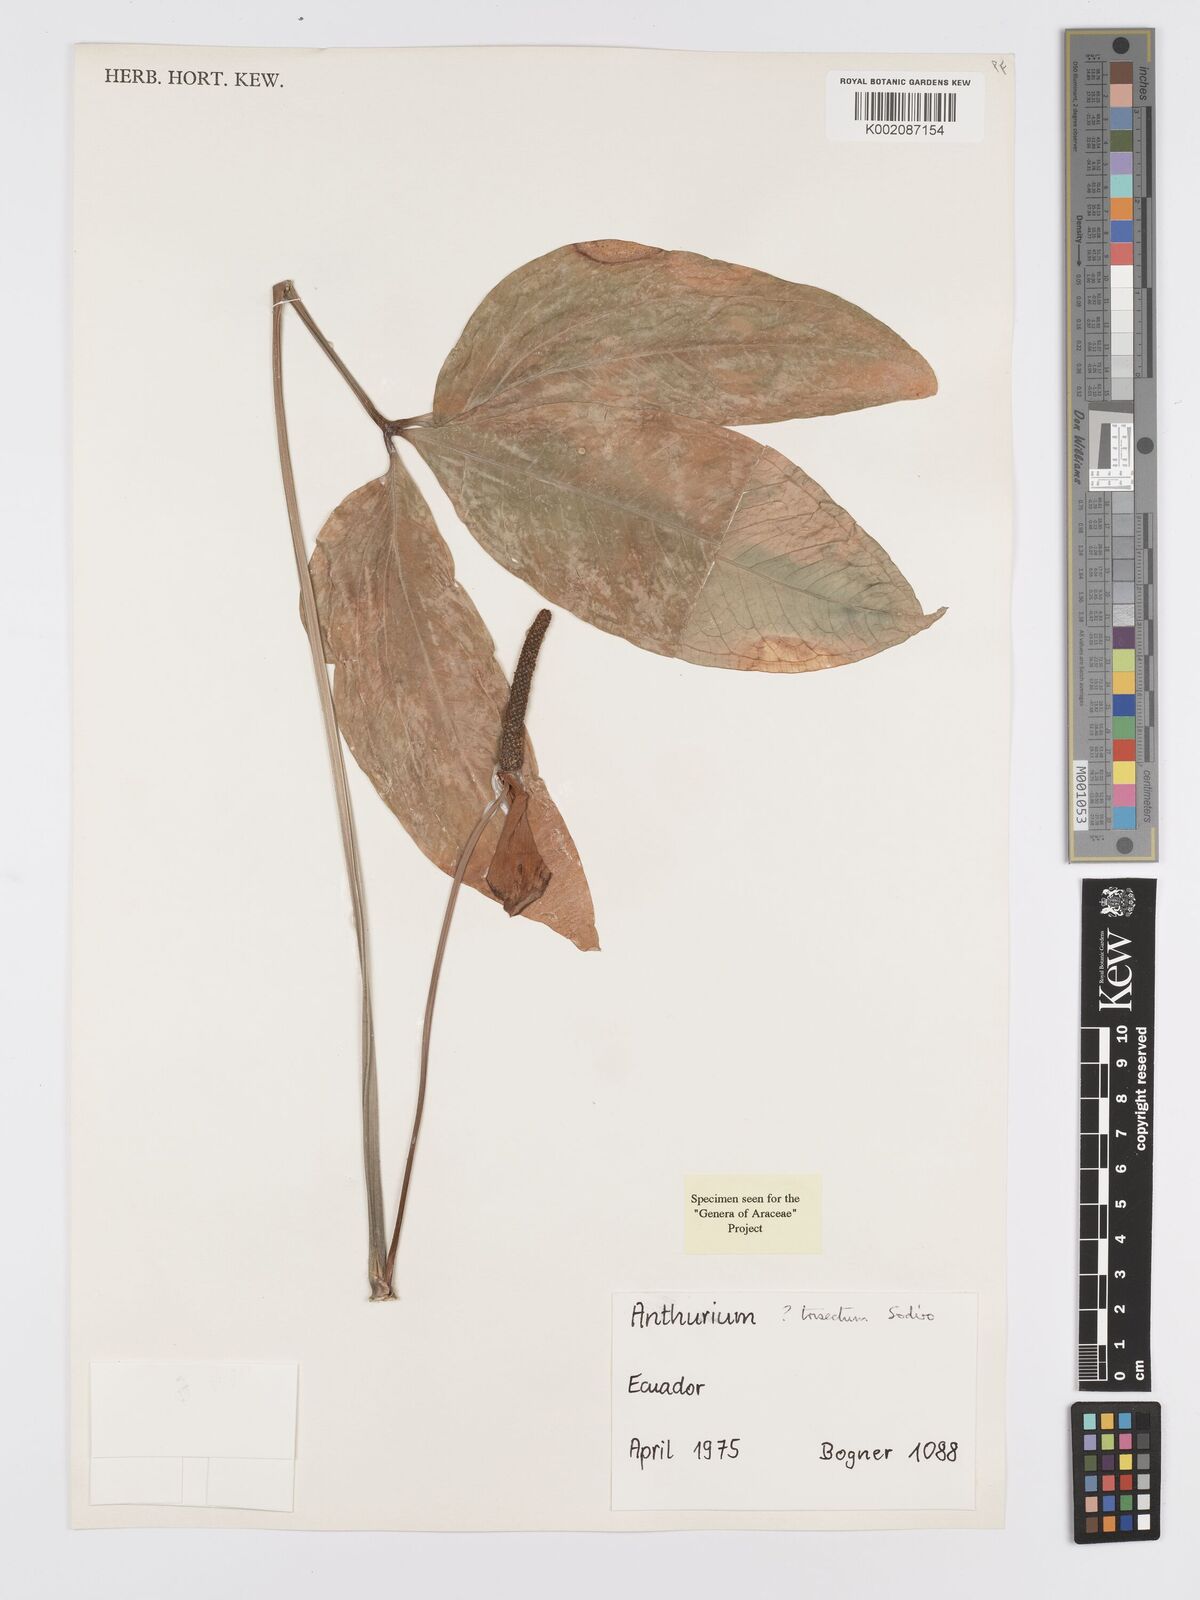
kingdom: Plantae
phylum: Tracheophyta
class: Liliopsida
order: Alismatales
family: Araceae
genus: Anthurium
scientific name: Anthurium trisectum
